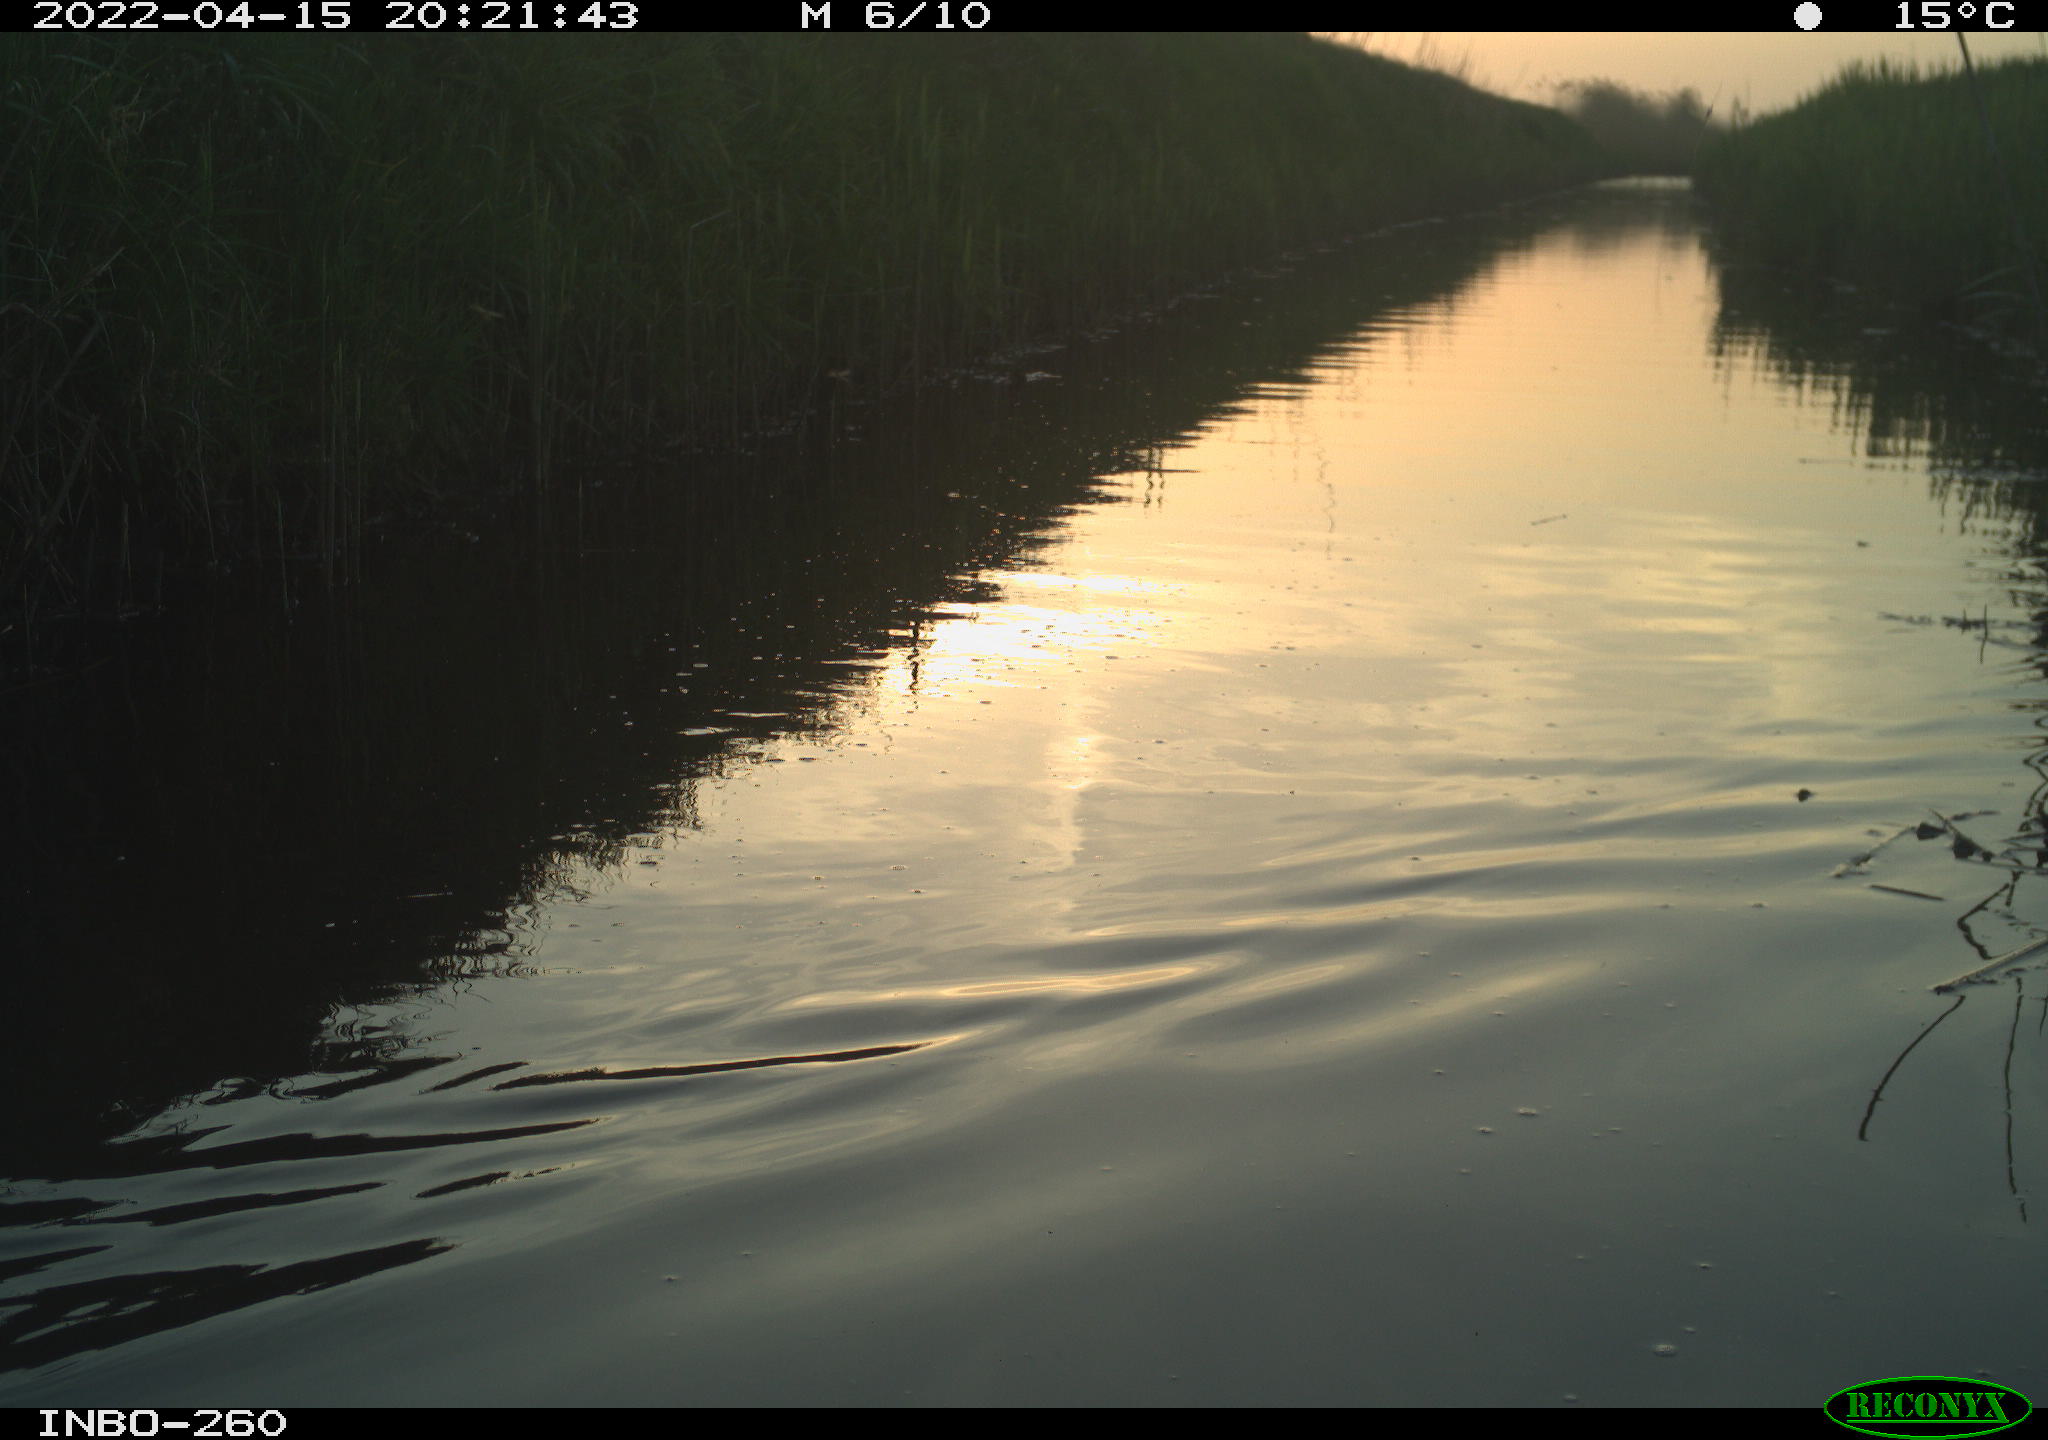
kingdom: Animalia
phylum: Chordata
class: Aves
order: Gruiformes
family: Rallidae
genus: Fulica
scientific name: Fulica atra
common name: Eurasian coot
